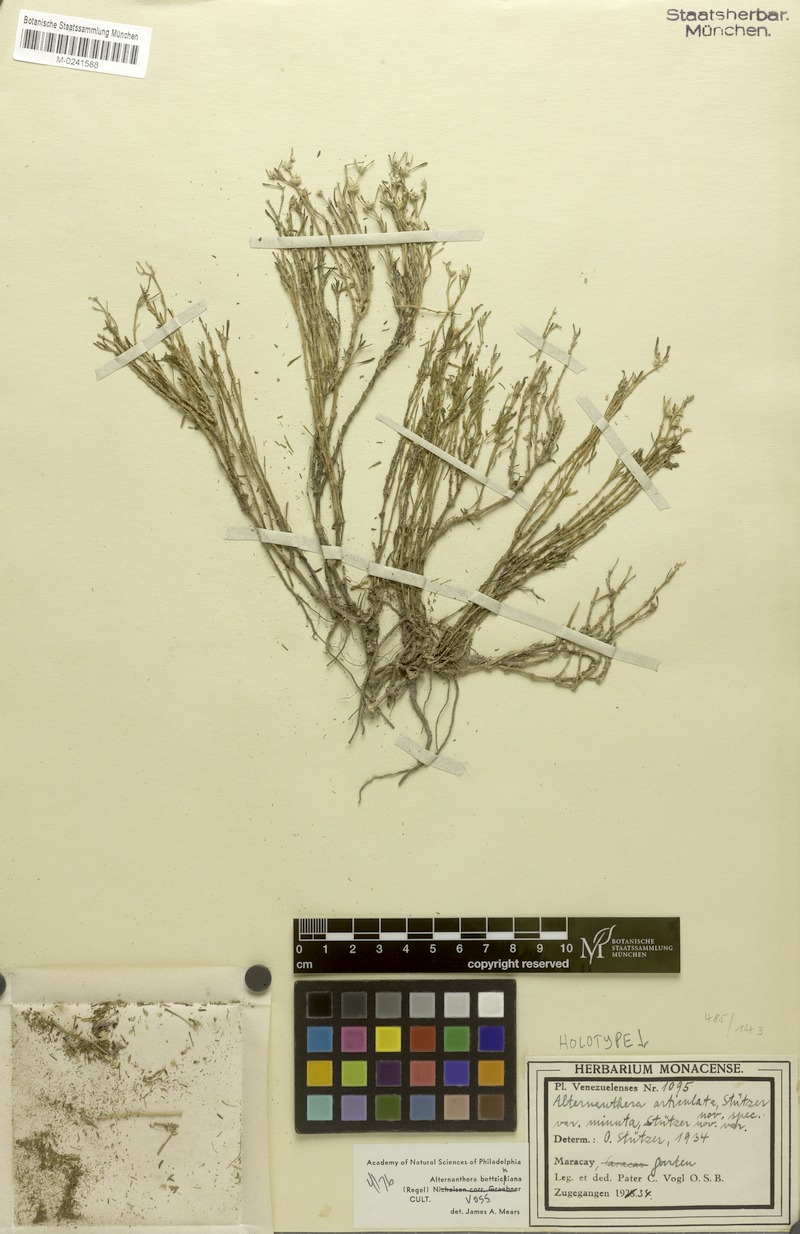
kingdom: Plantae
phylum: Tracheophyta
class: Magnoliopsida
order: Caryophyllales
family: Amaranthaceae
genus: Alternanthera
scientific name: Alternanthera bettzickiana
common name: Calico-plant
